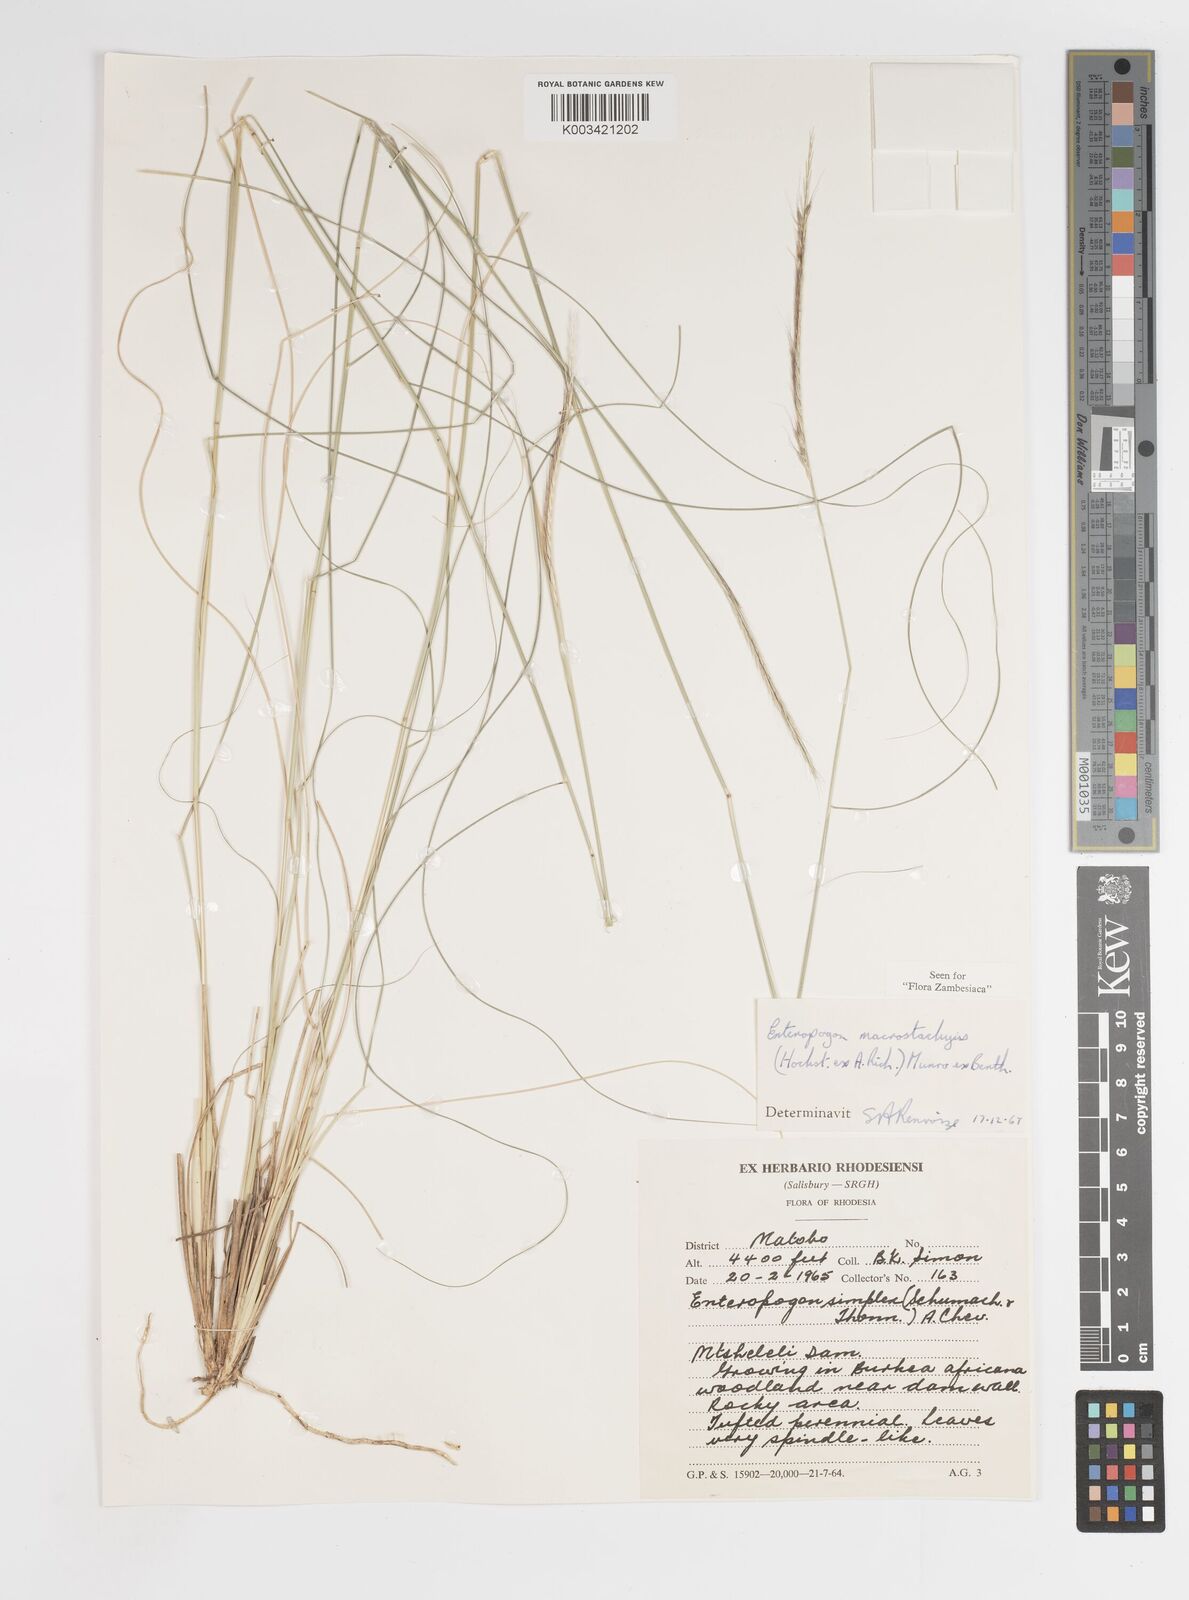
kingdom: Plantae
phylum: Tracheophyta
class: Liliopsida
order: Poales
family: Poaceae
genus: Enteropogon
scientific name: Enteropogon macrostachyus
